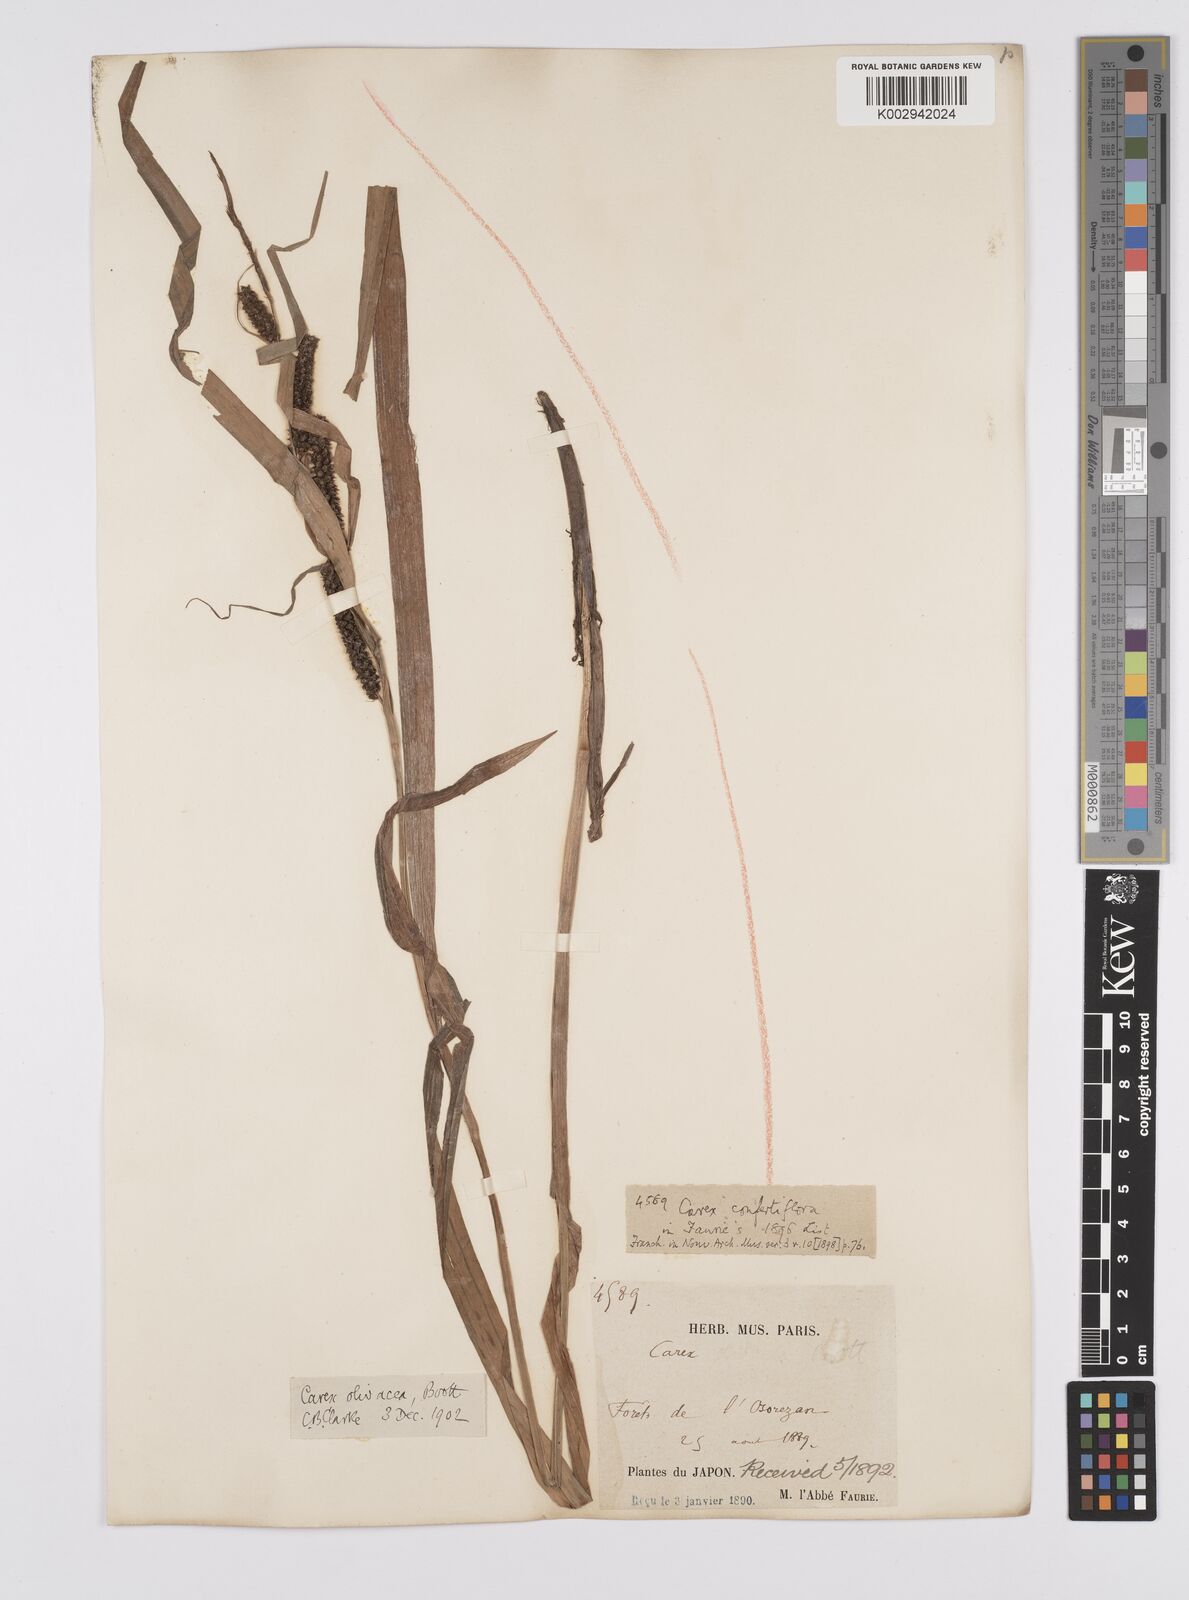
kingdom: Plantae
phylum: Tracheophyta
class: Liliopsida
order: Poales
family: Cyperaceae
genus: Carex
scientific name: Carex olivacea
